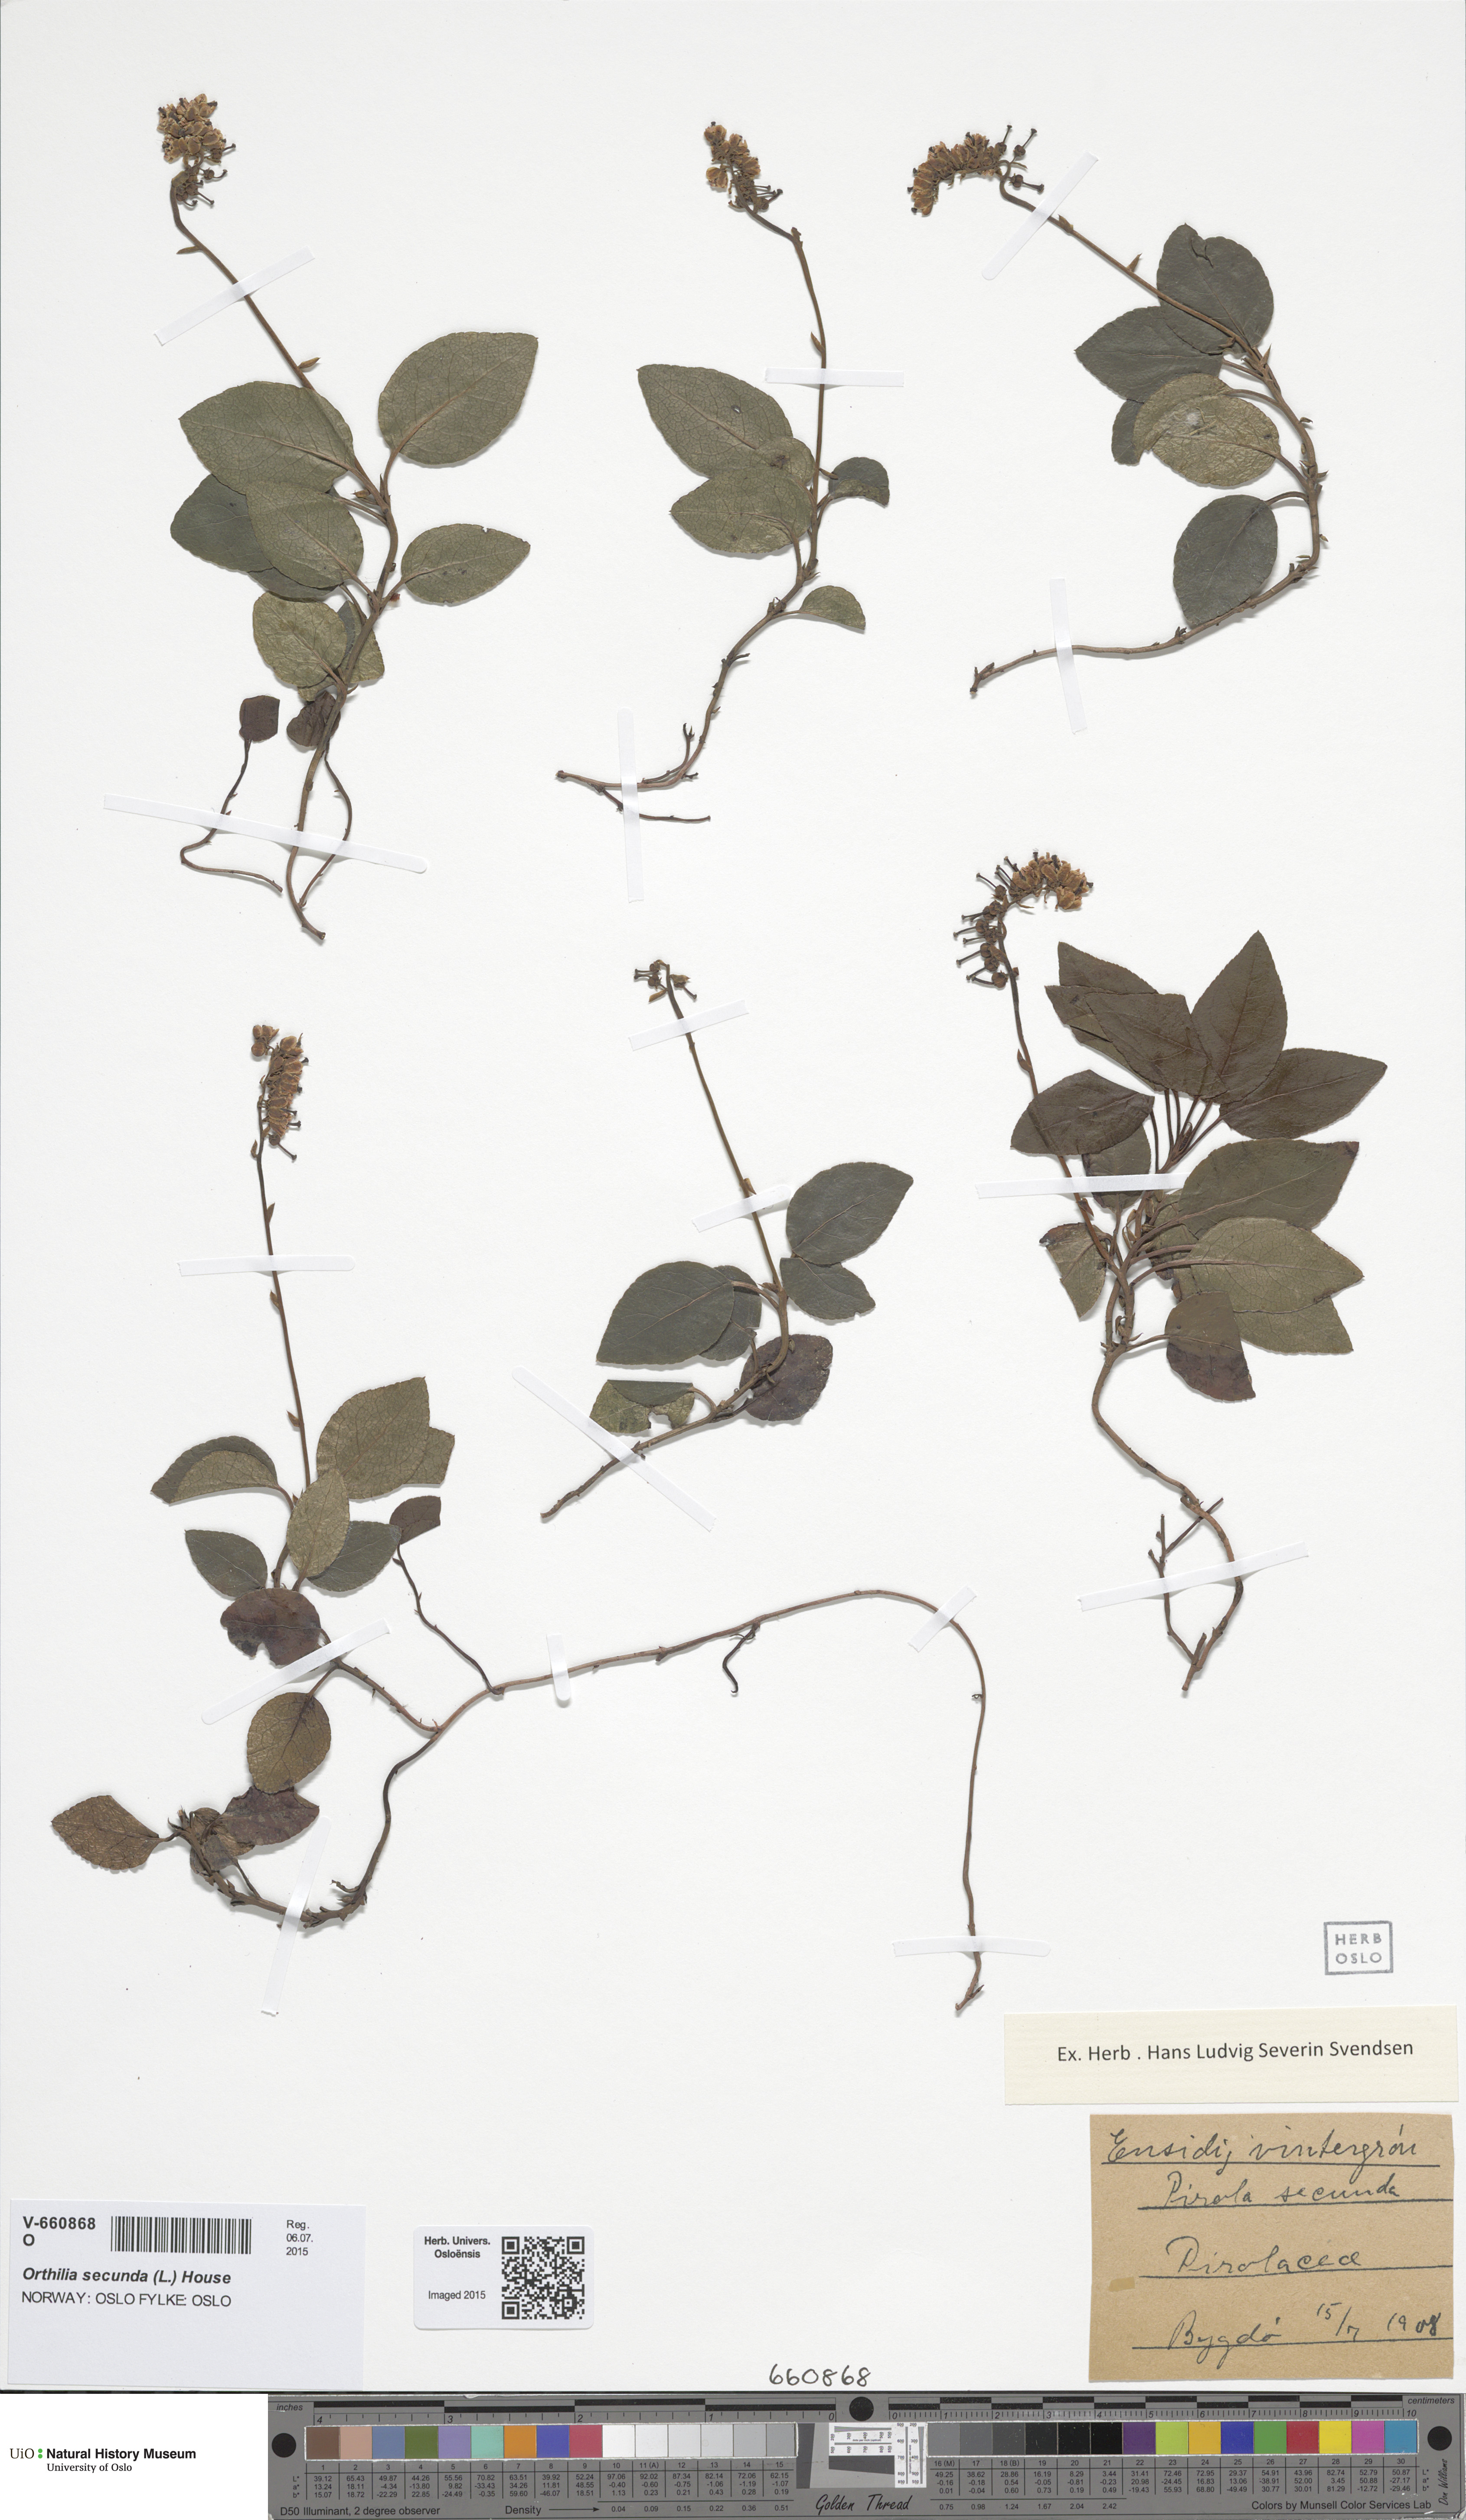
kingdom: Plantae
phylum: Tracheophyta
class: Magnoliopsida
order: Ericales
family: Ericaceae
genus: Orthilia
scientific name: Orthilia secunda
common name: One-sided orthilia
